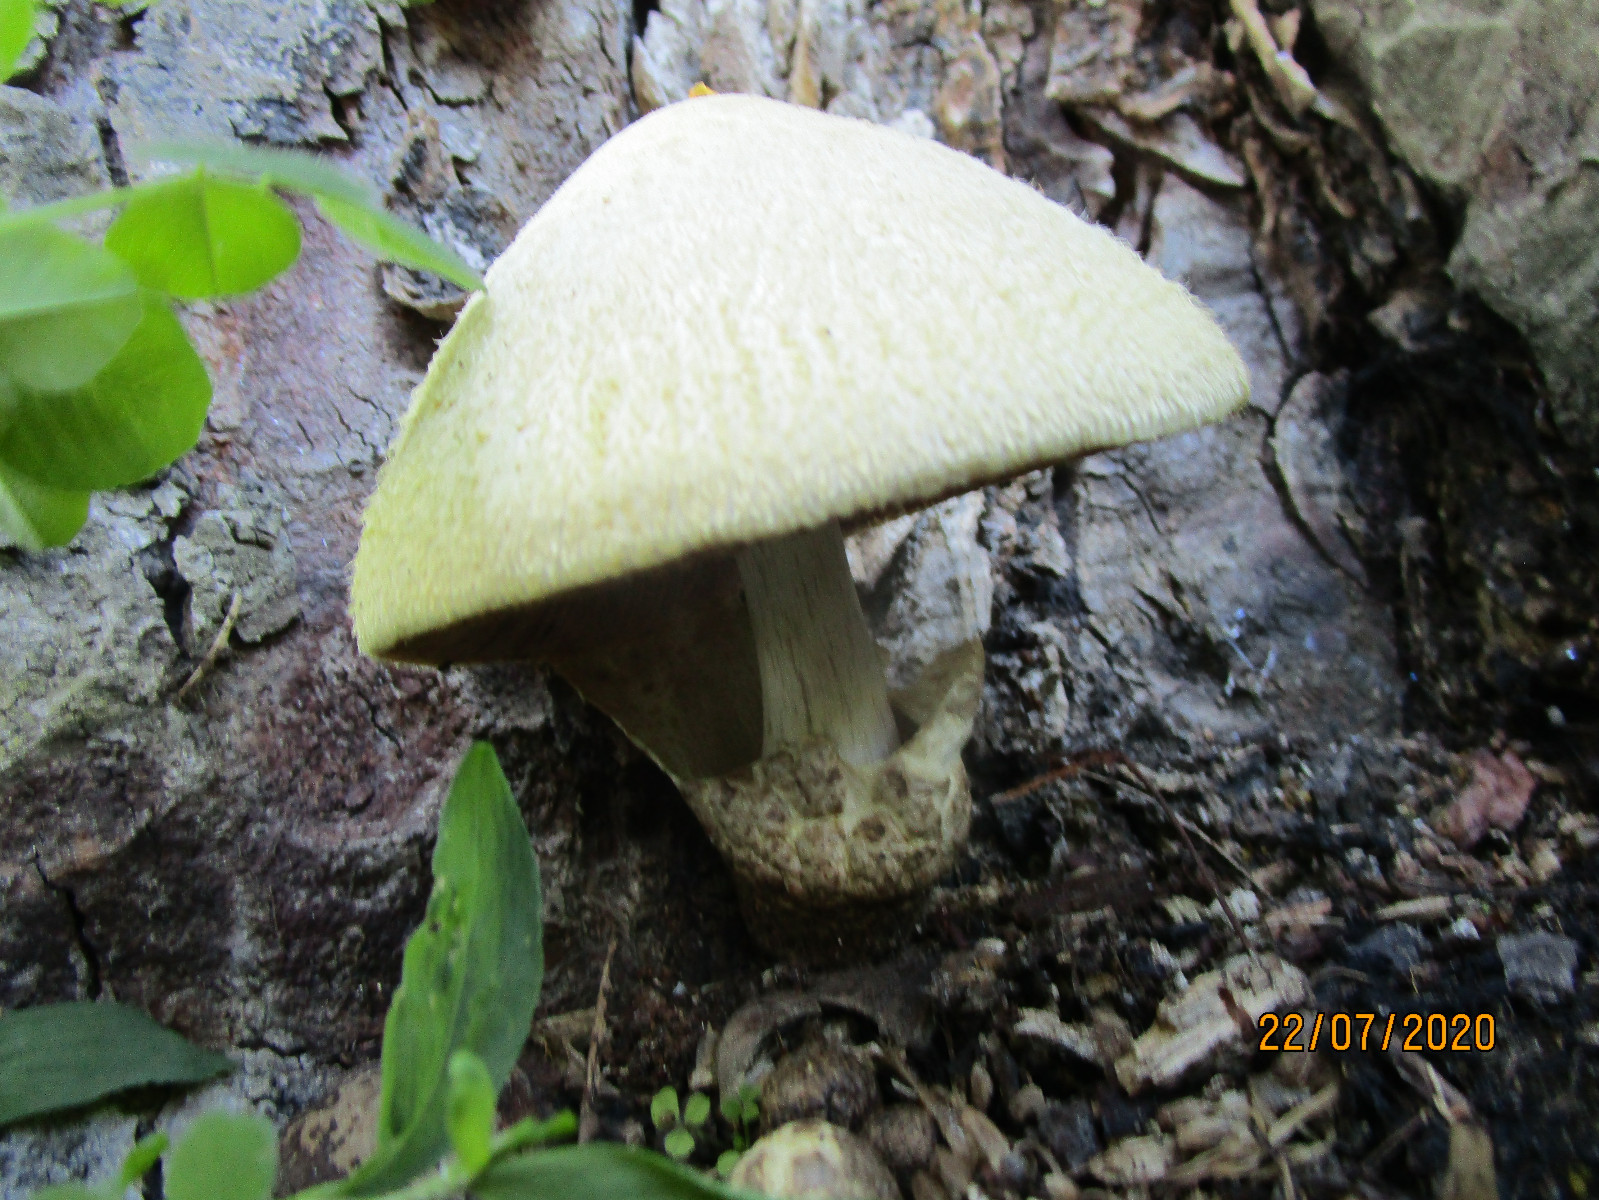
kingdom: Fungi
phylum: Basidiomycota
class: Agaricomycetes
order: Agaricales
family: Pluteaceae
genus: Volvariella
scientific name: Volvariella bombycina
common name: silkehåret posesvamp
